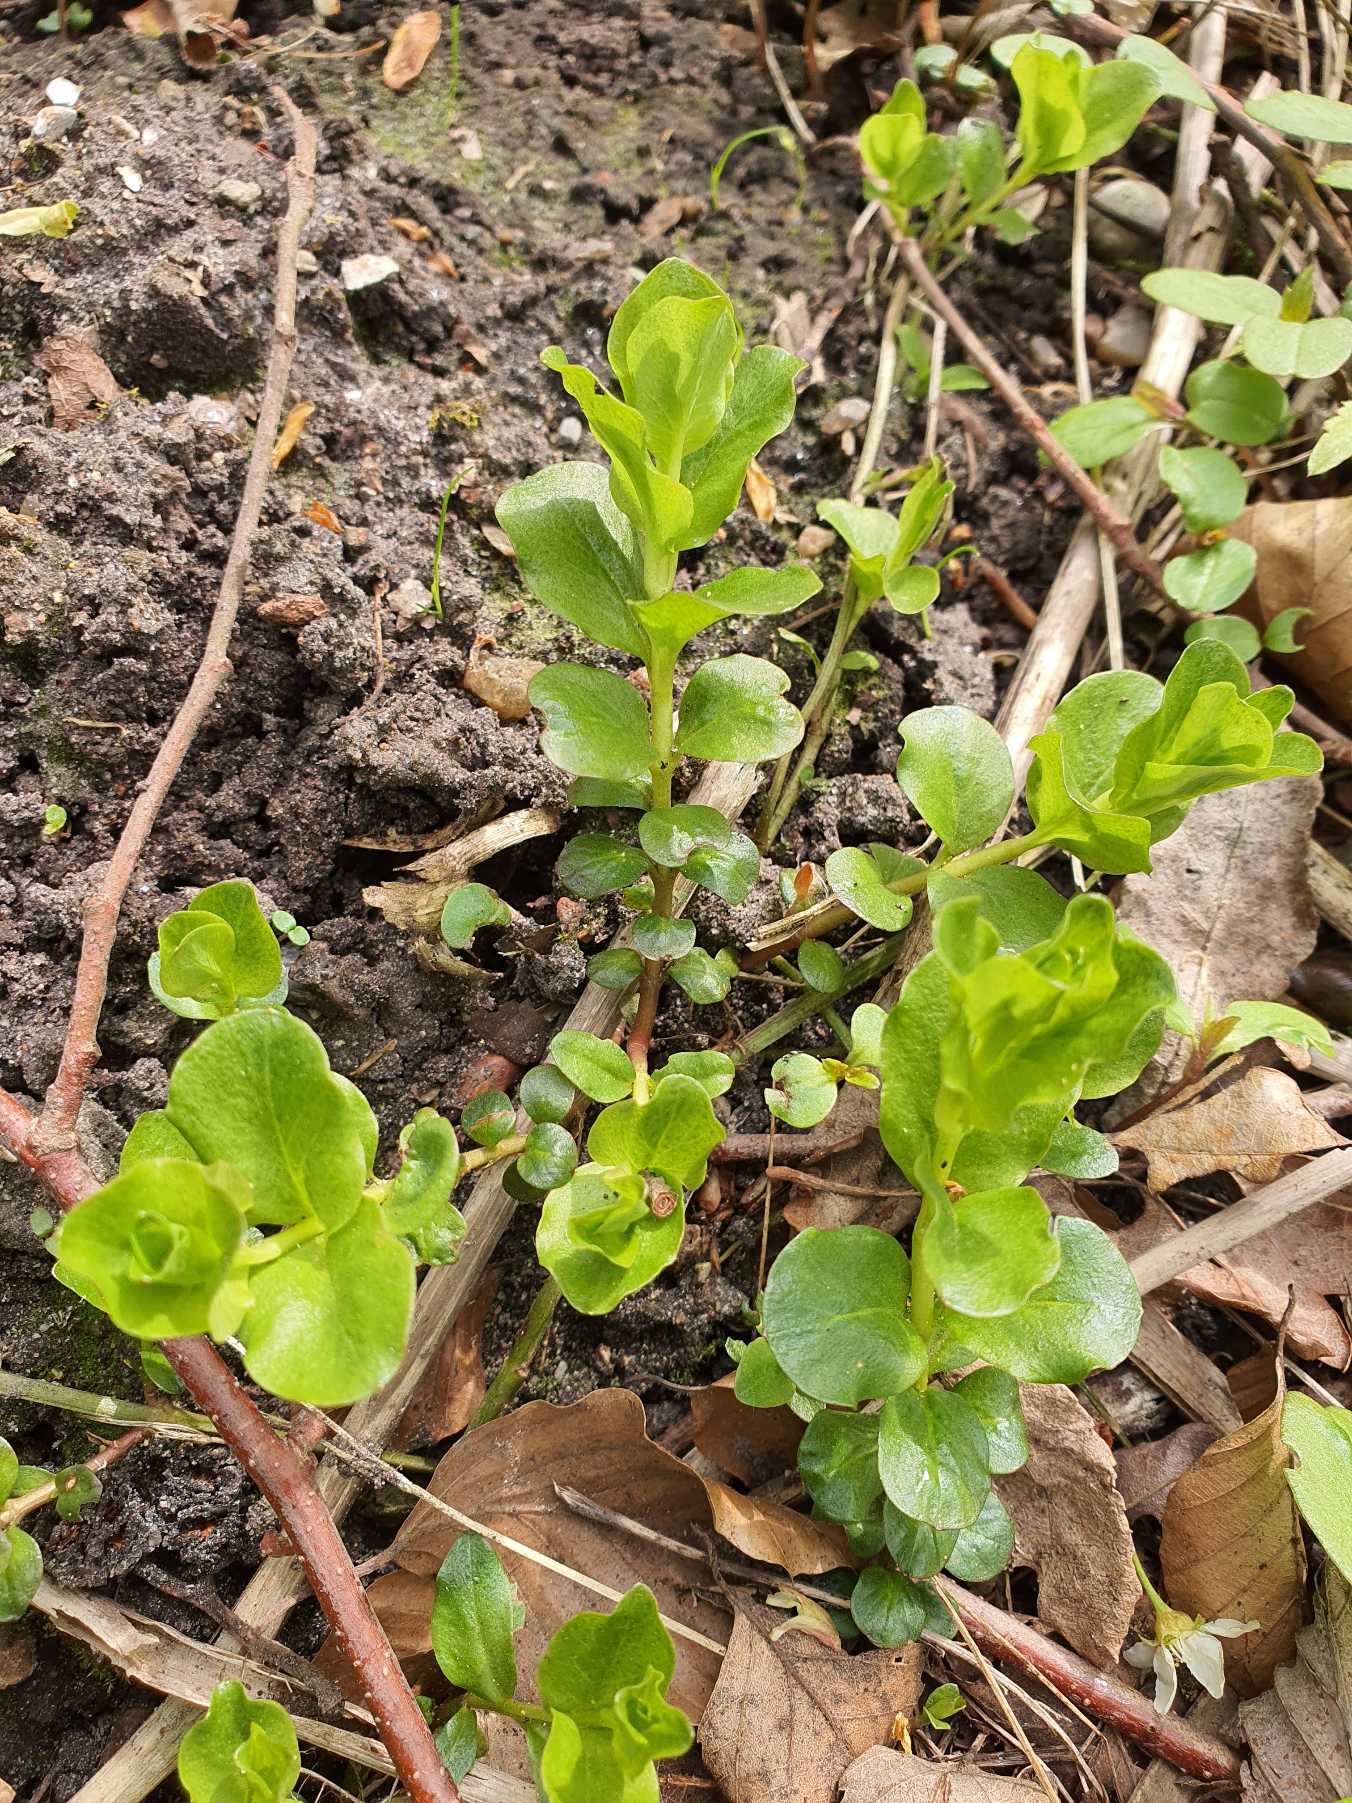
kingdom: Plantae
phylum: Tracheophyta
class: Magnoliopsida
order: Ericales
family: Primulaceae
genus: Lysimachia
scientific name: Lysimachia nummularia
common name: Pengebladet fredløs
